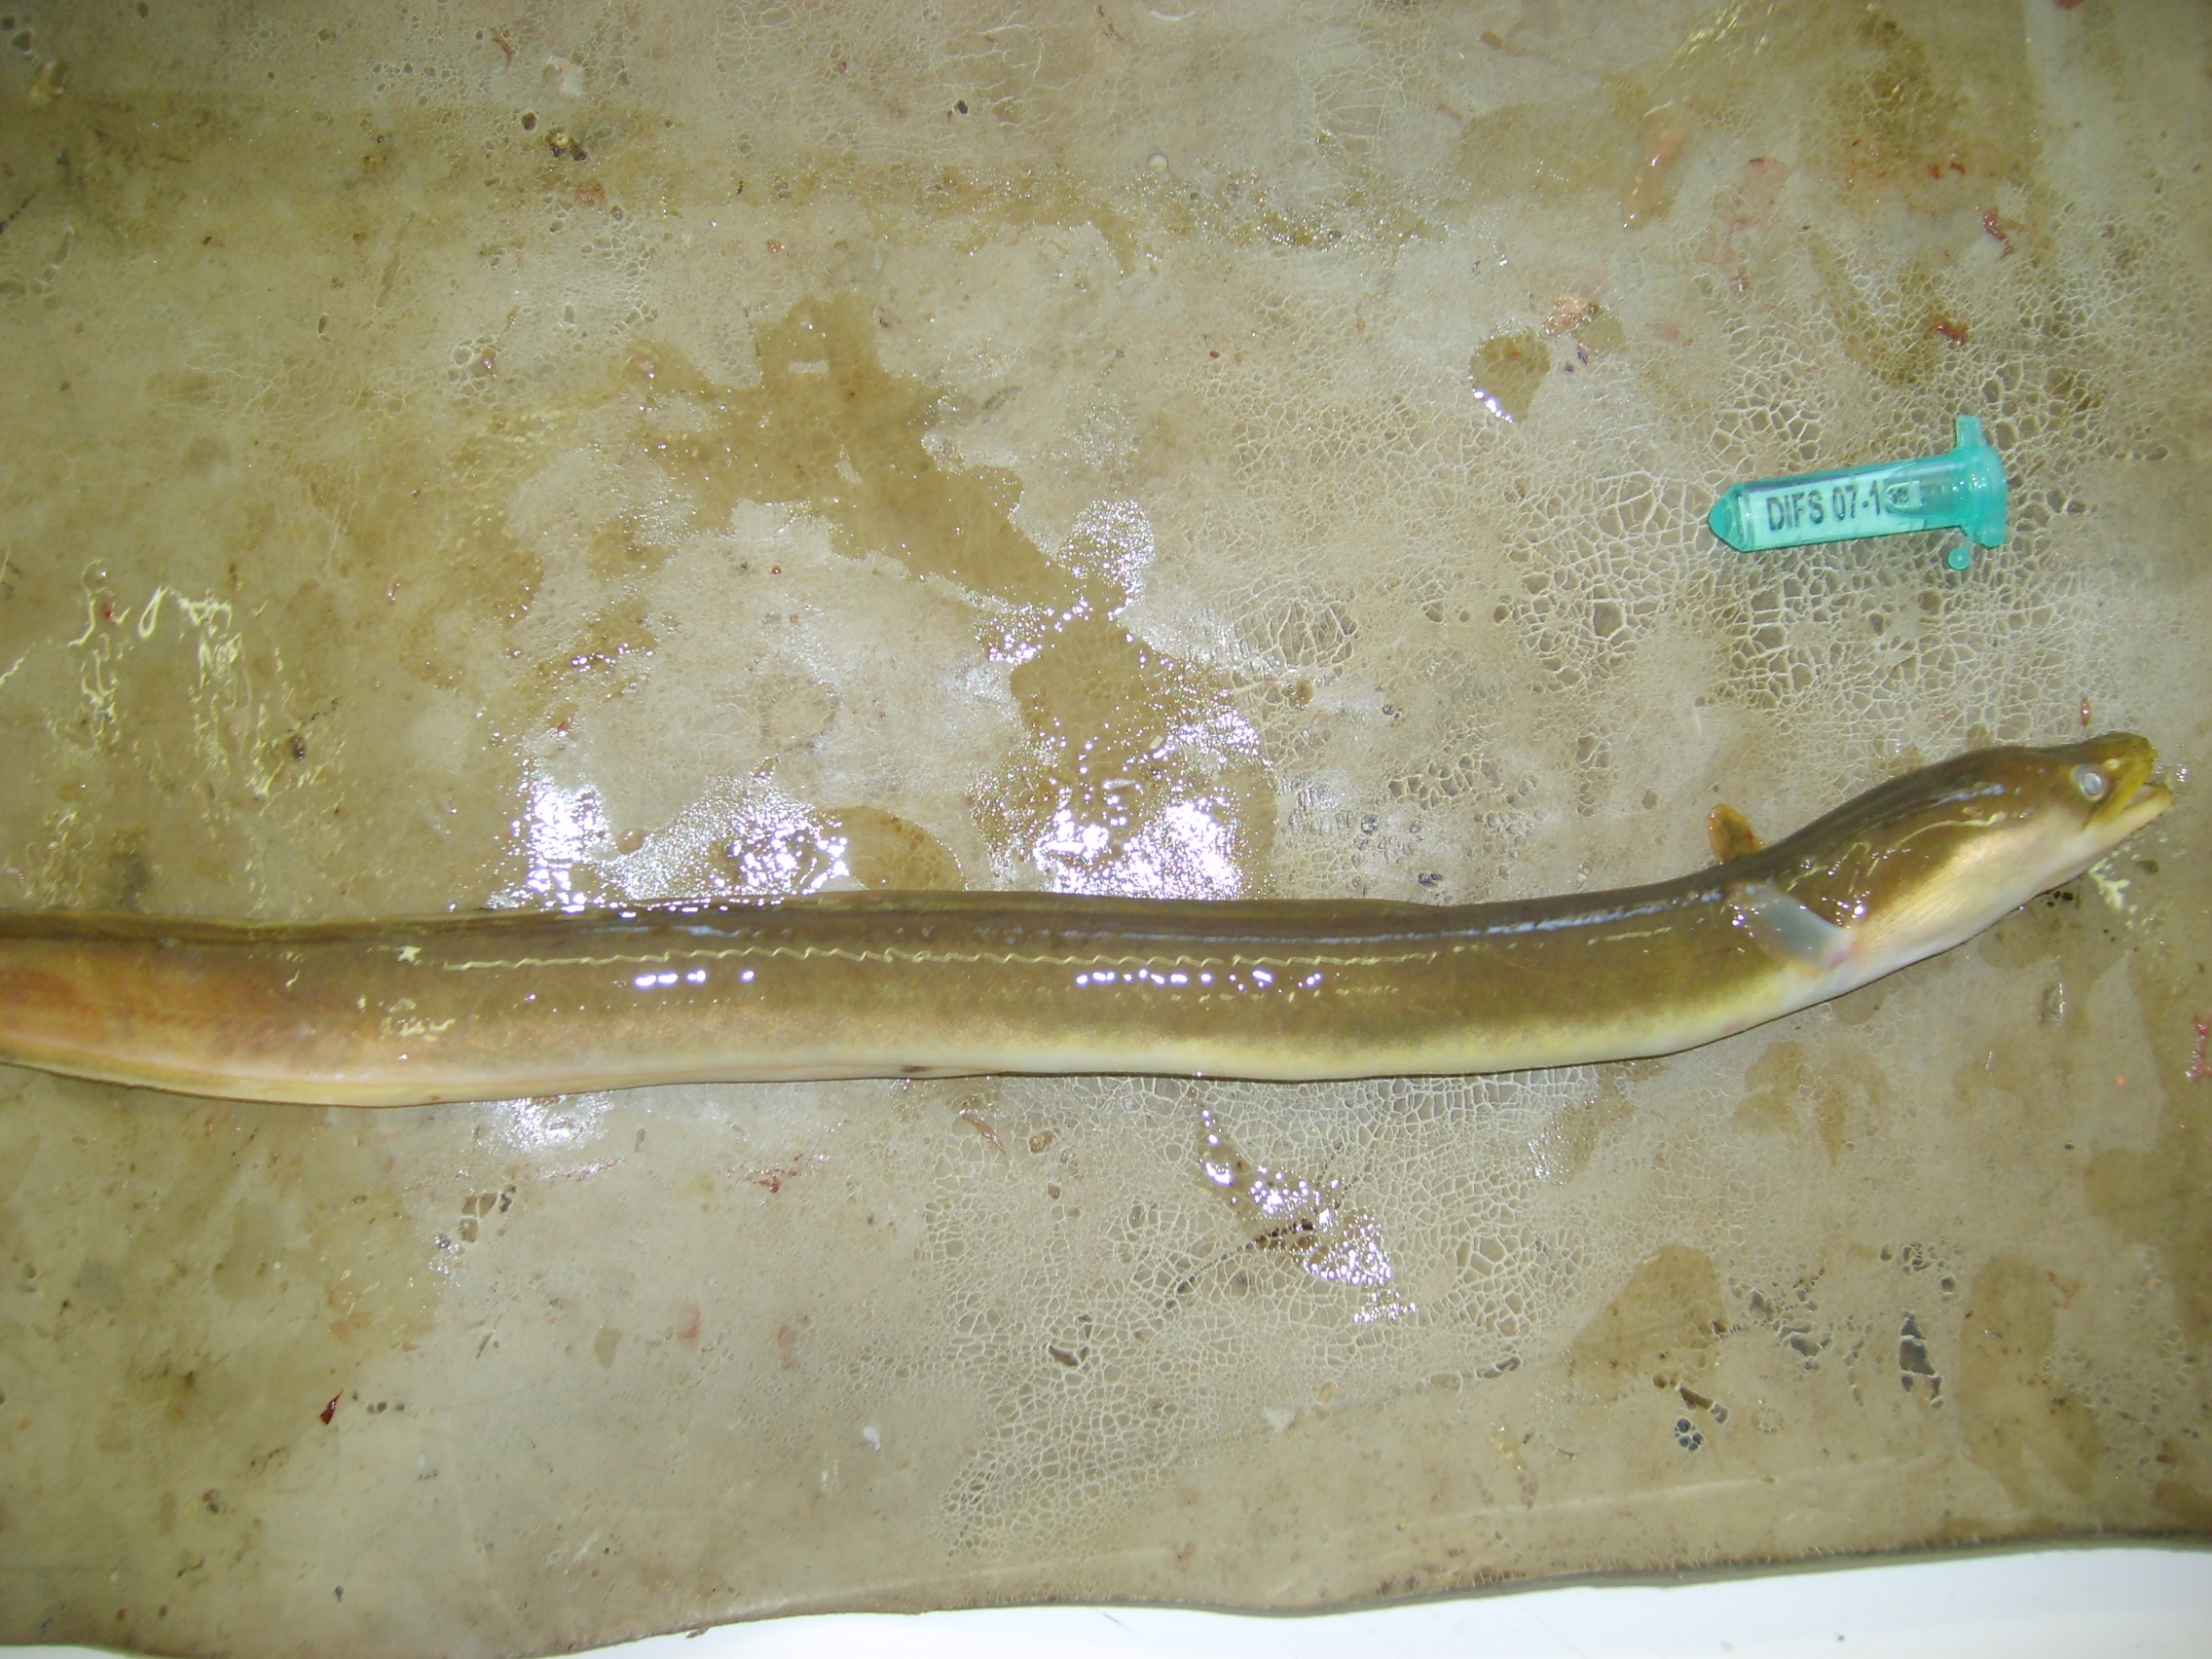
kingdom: Animalia
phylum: Chordata
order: Anguilliformes
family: Anguillidae
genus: Anguilla
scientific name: Anguilla mossambica
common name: African longfin eel
